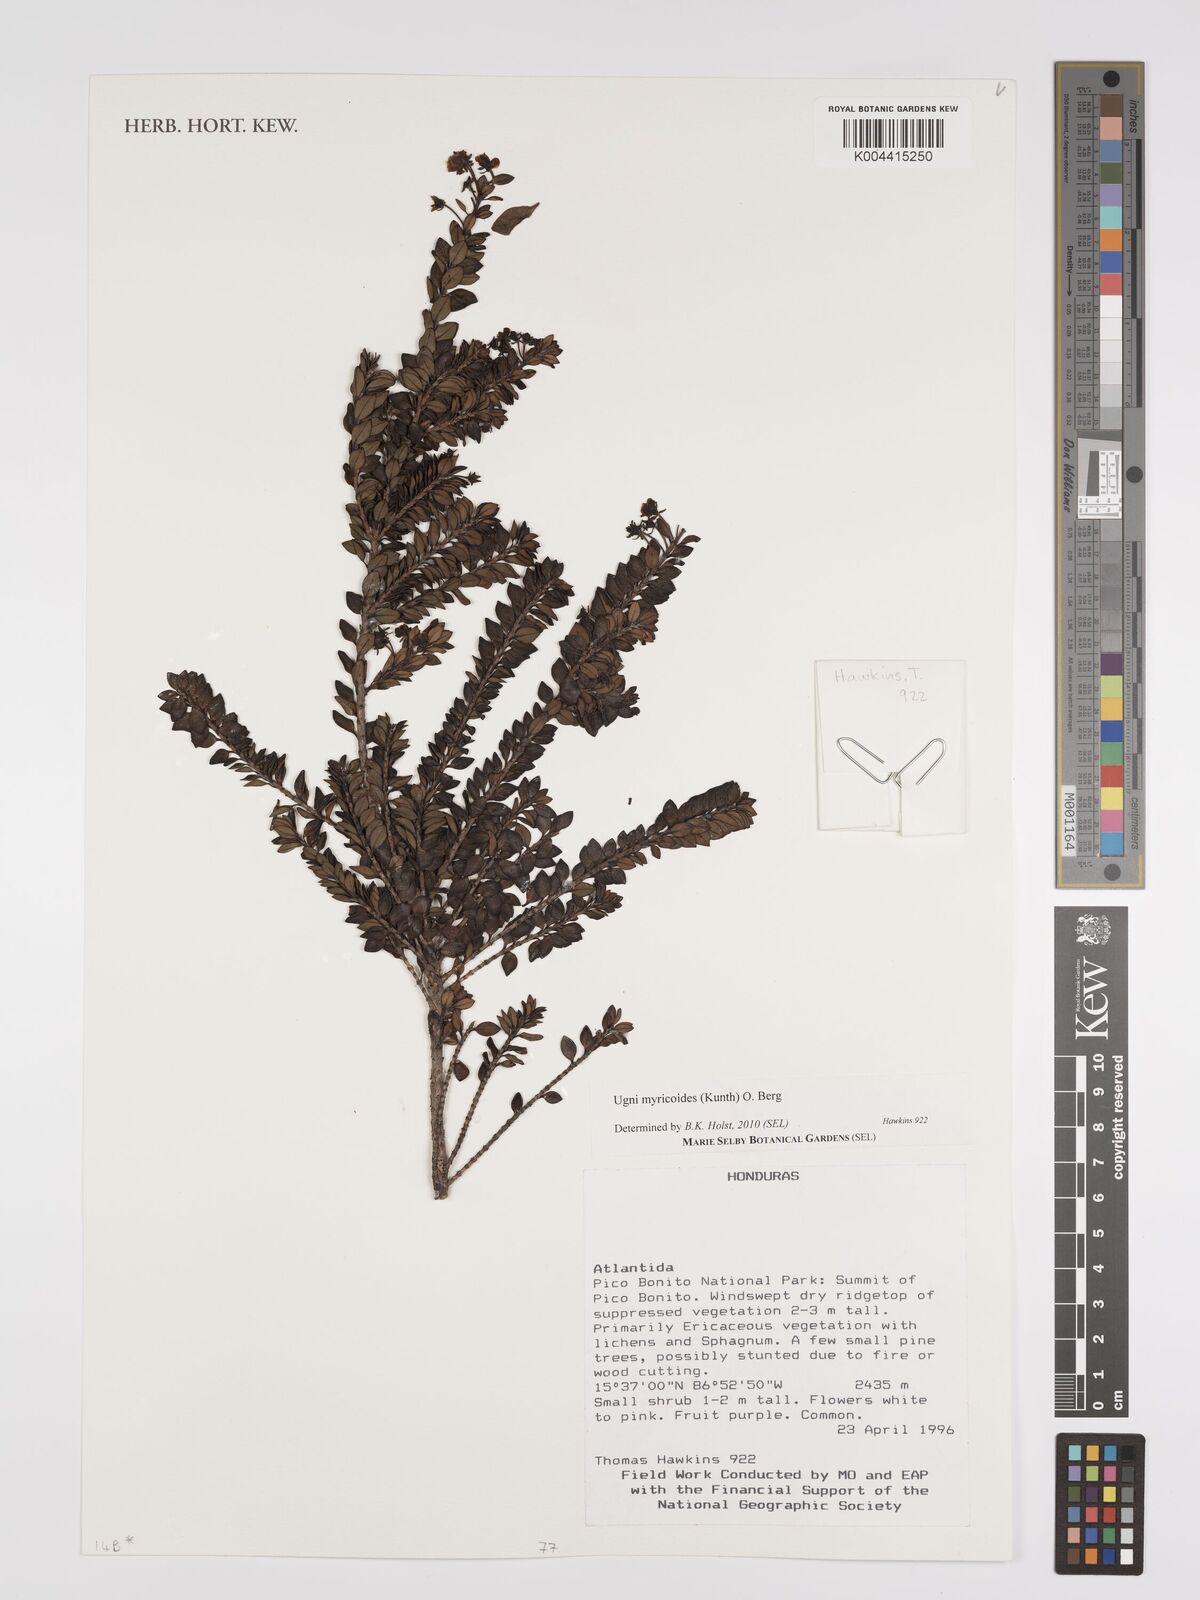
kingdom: Plantae
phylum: Tracheophyta
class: Magnoliopsida
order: Myrtales
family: Myrtaceae
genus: Ugni
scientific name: Ugni myricoides
